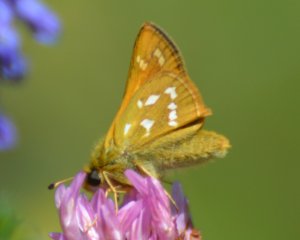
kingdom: Animalia
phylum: Arthropoda
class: Insecta
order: Lepidoptera
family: Hesperiidae
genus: Hesperia
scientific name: Hesperia comma
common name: Common Branded Skipper
